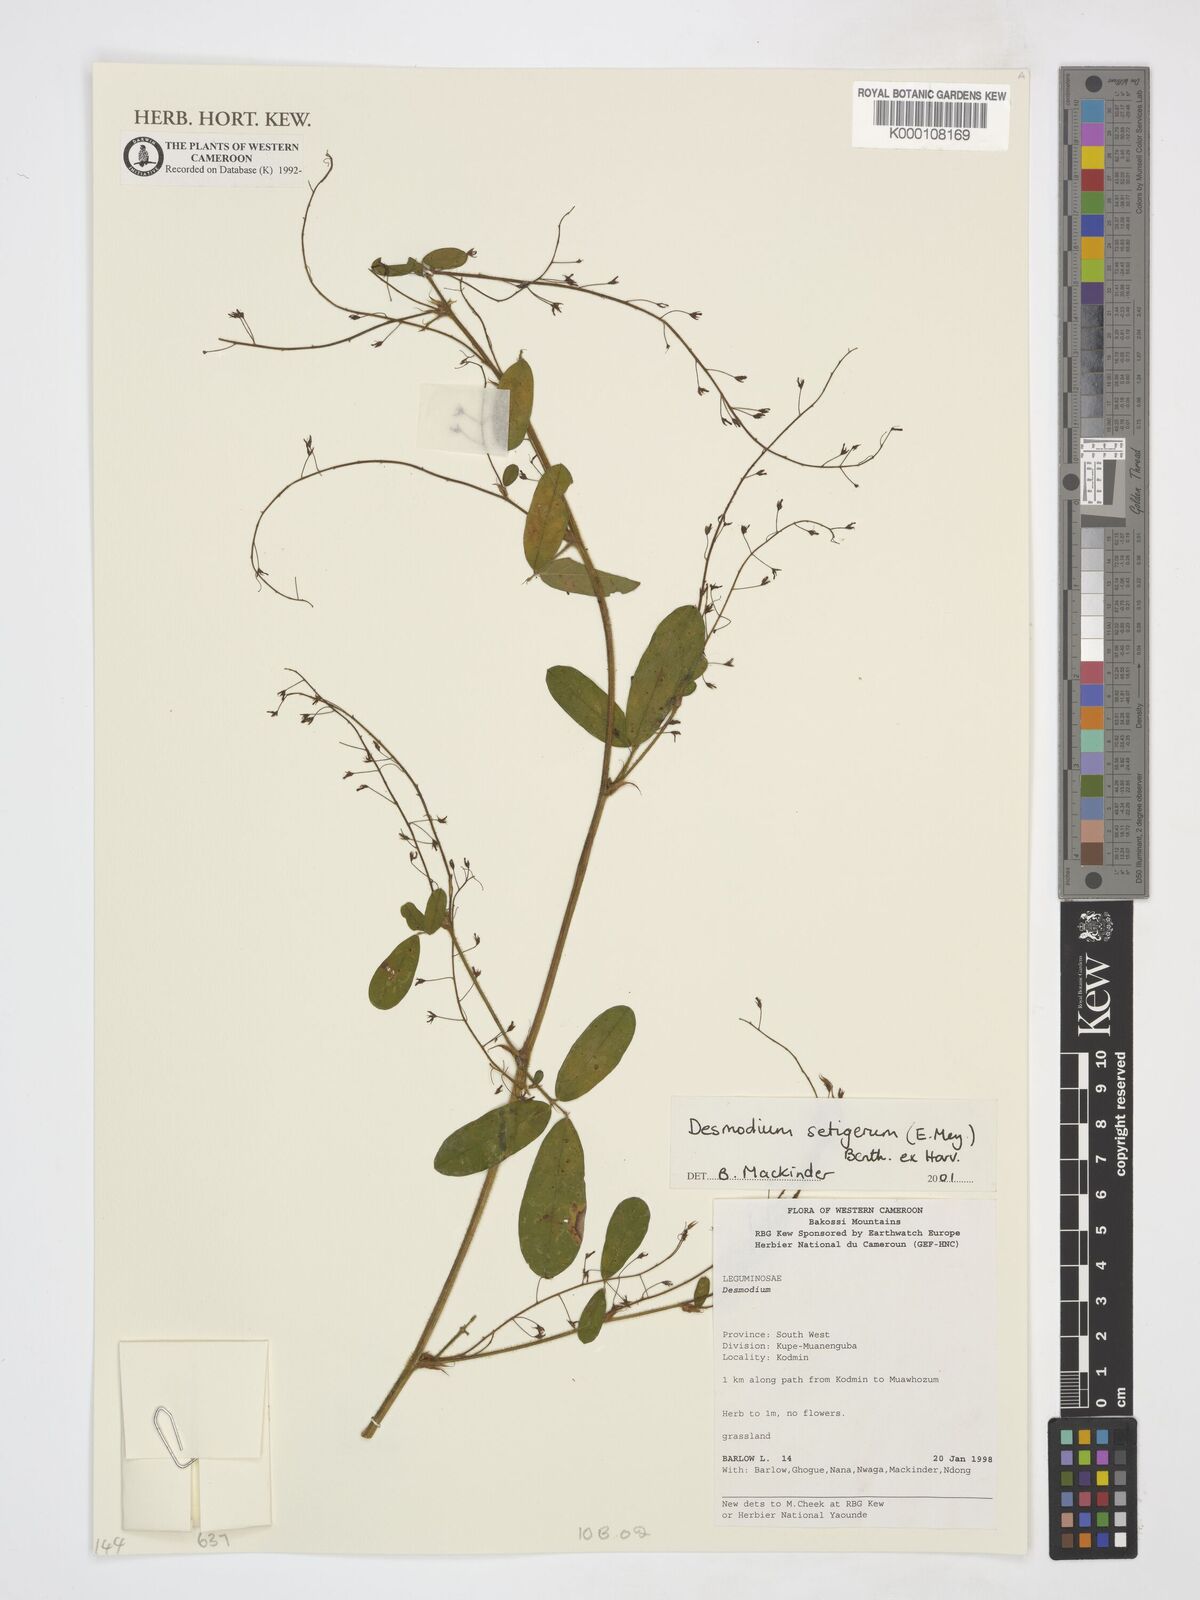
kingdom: Plantae
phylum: Tracheophyta
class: Magnoliopsida
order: Fabales
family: Fabaceae
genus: Grona
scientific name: Grona setigera
